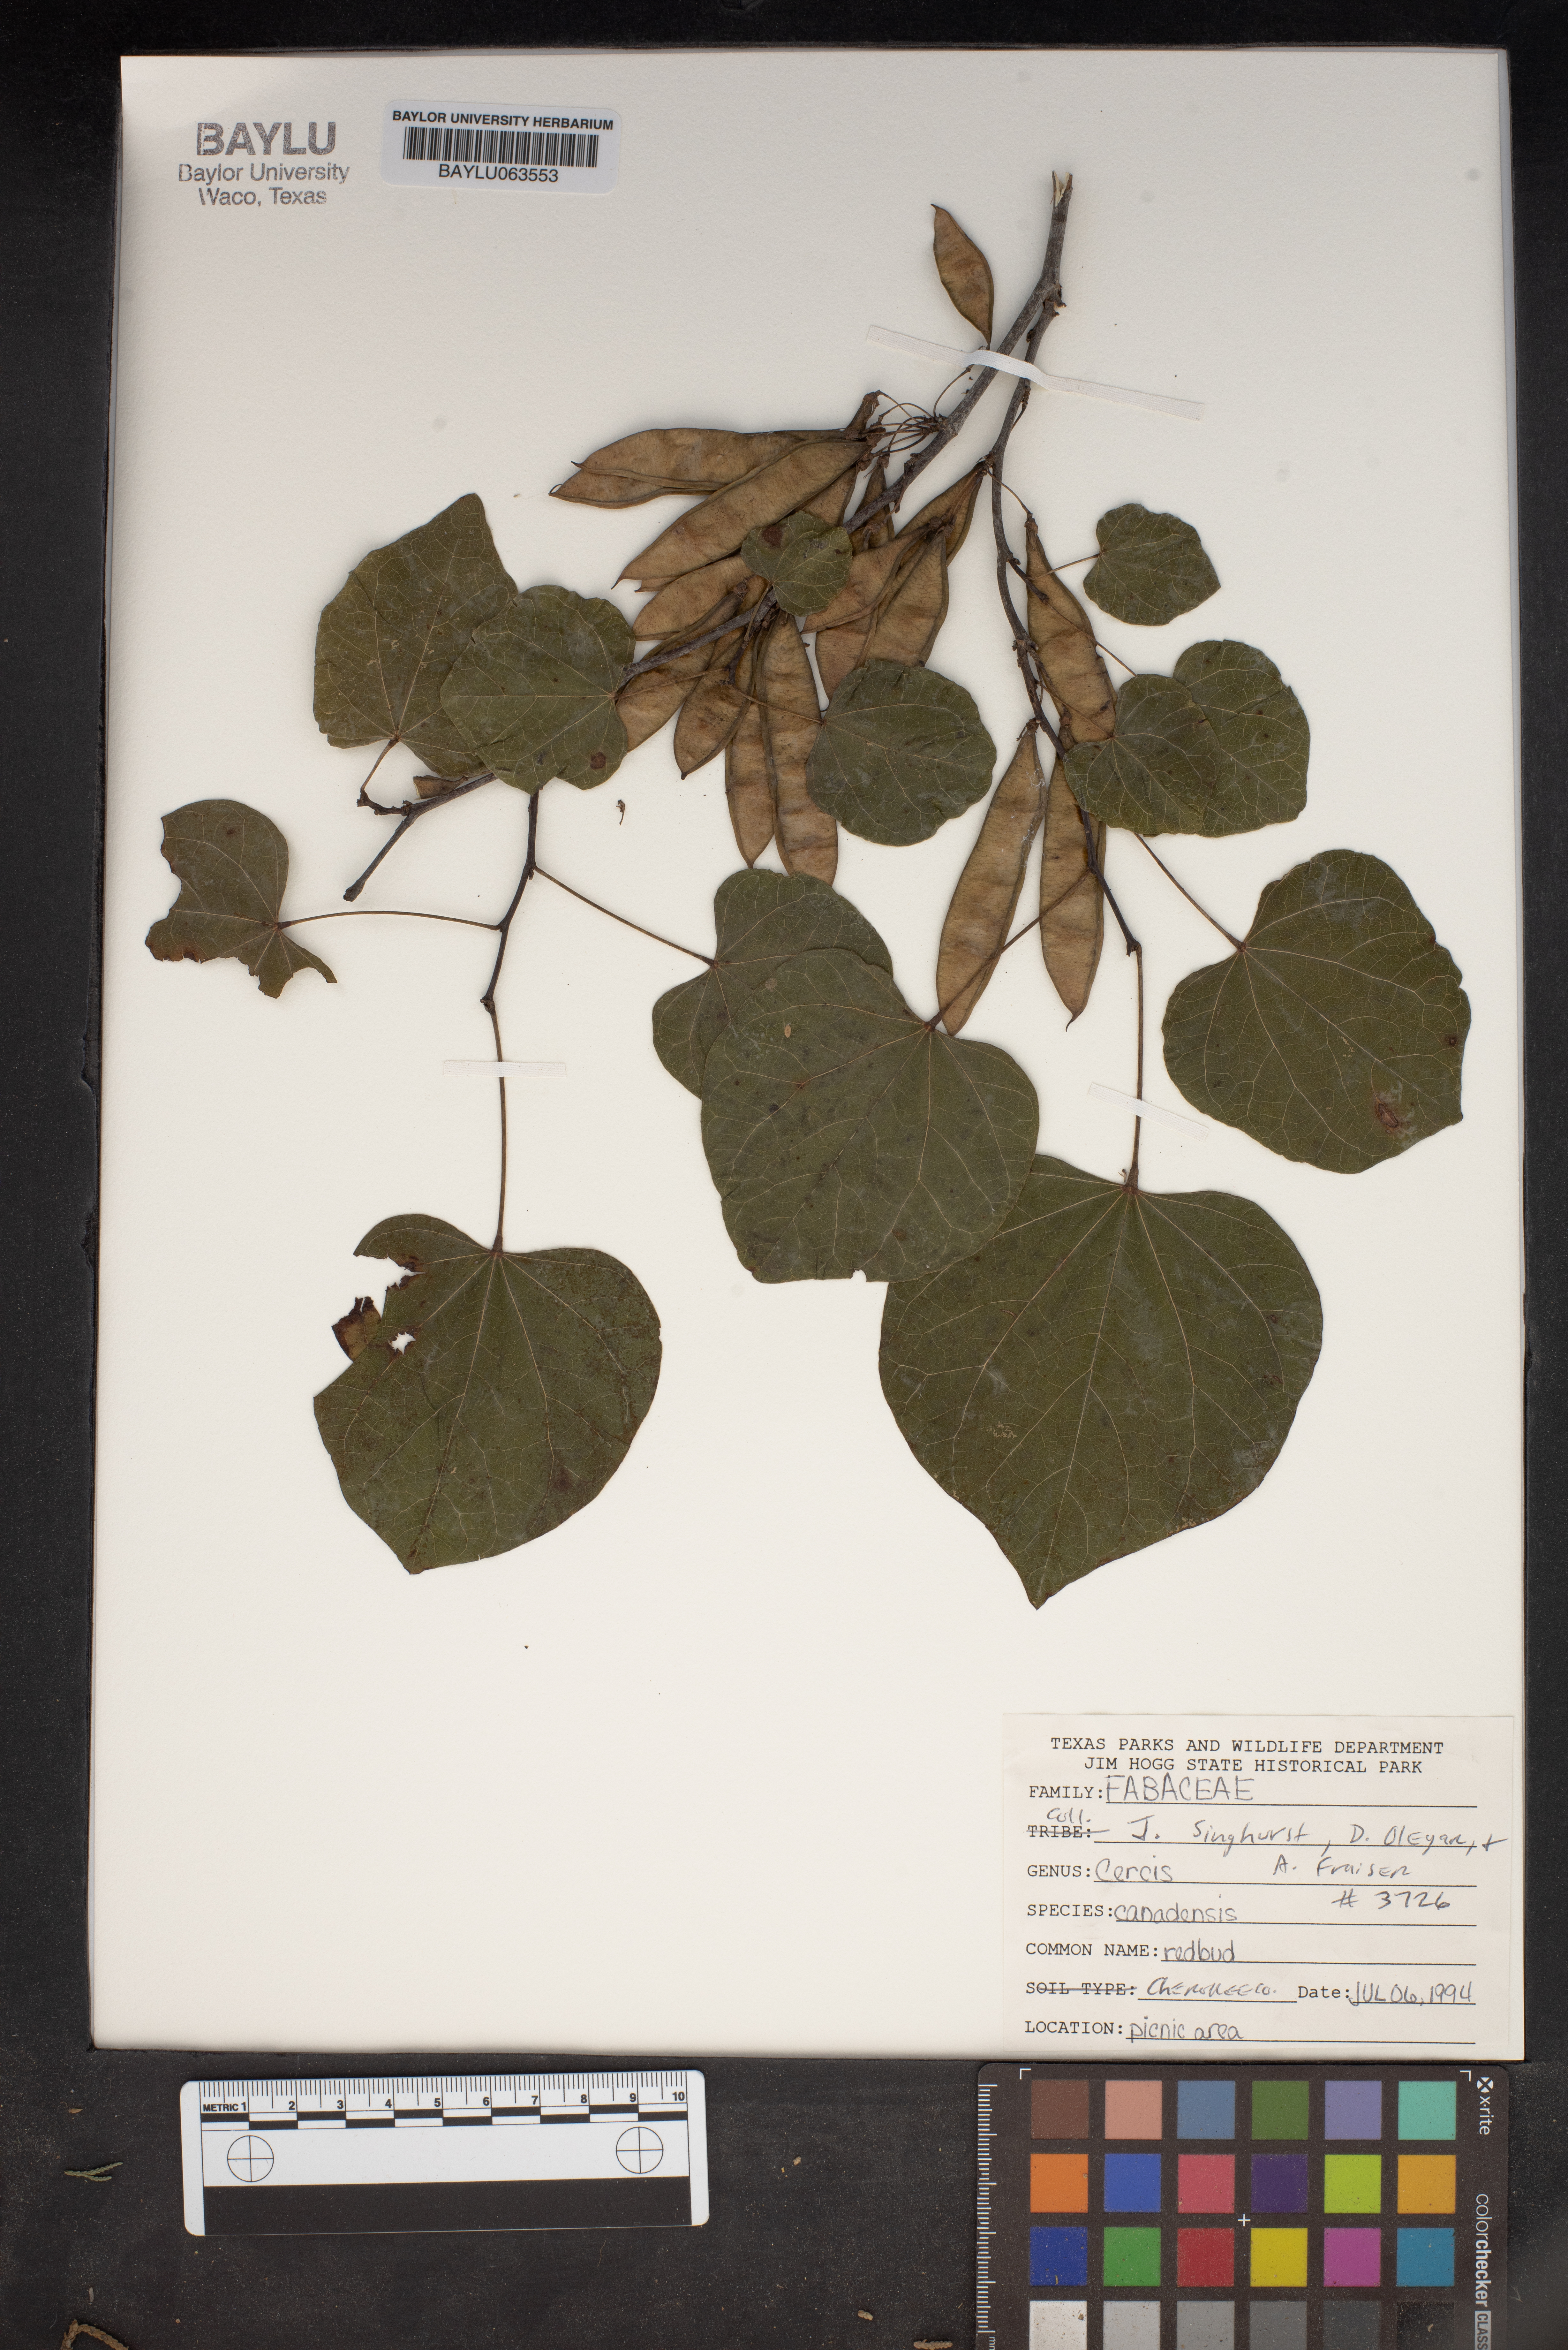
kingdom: Plantae
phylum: Tracheophyta
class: Magnoliopsida
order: Fabales
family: Fabaceae
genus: Cercis
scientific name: Cercis canadensis
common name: Eastern redbud
